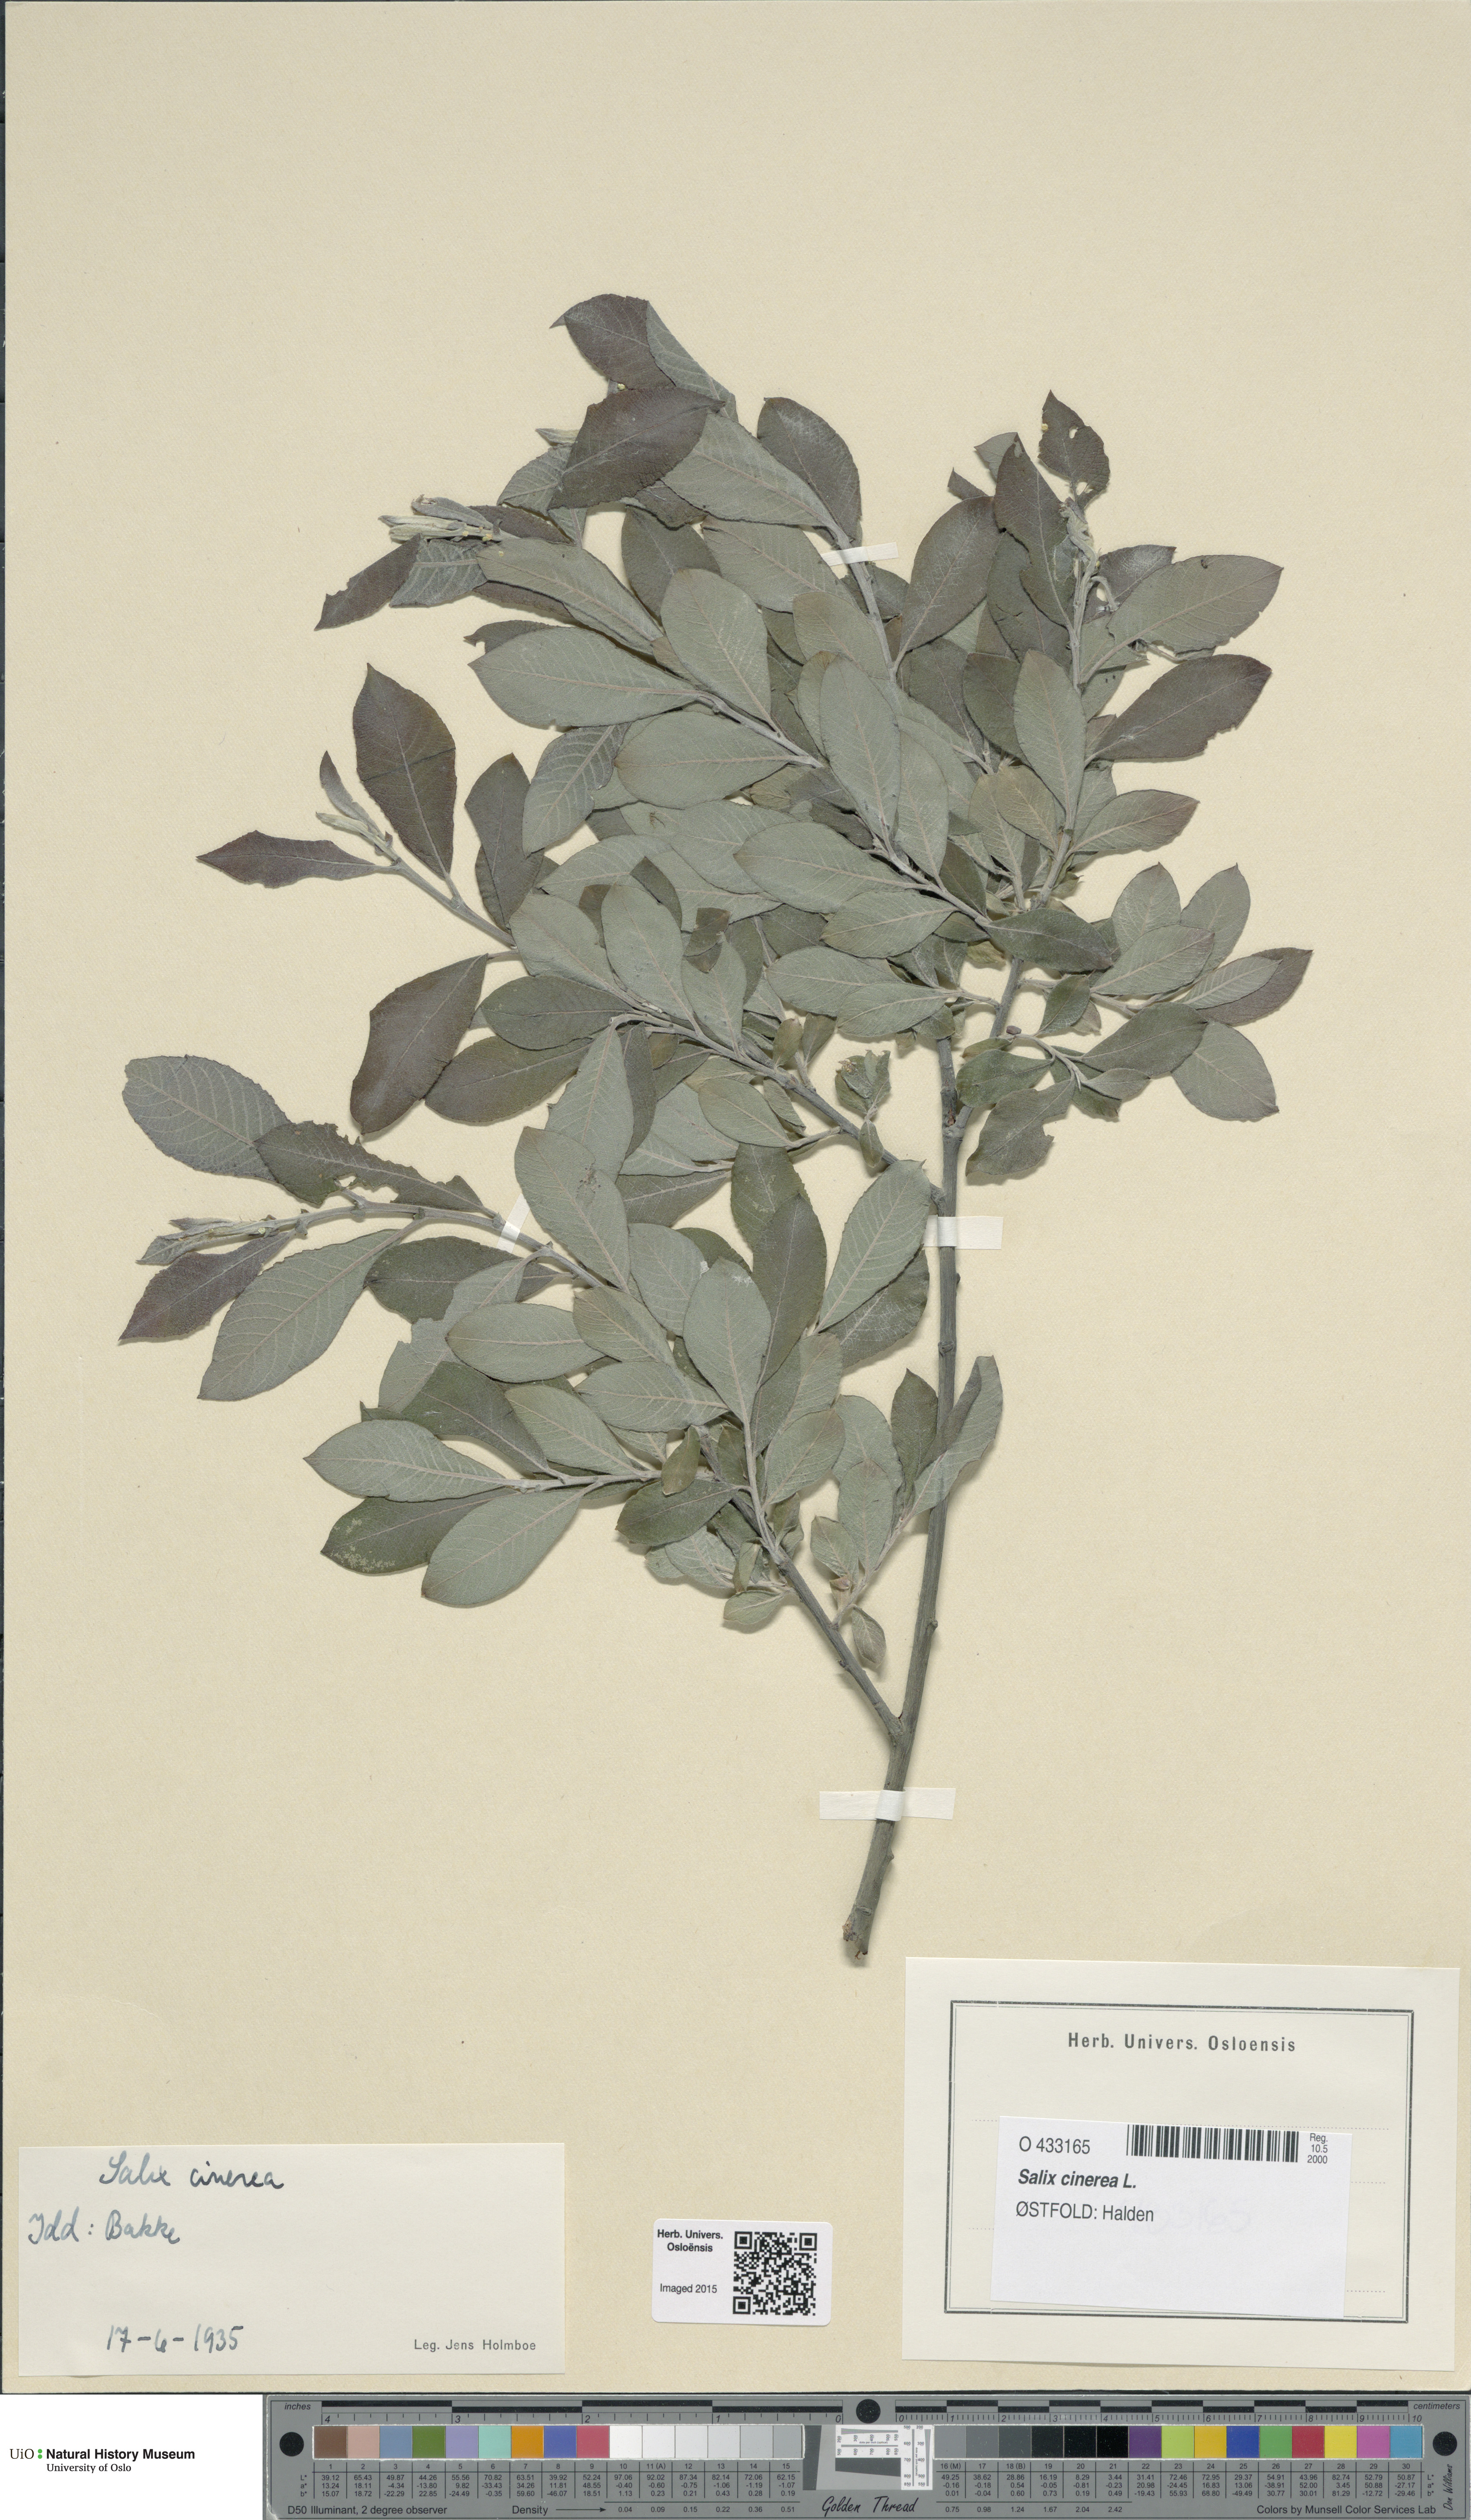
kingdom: Plantae
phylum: Tracheophyta
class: Magnoliopsida
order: Malpighiales
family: Salicaceae
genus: Salix
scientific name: Salix cinerea
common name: Common sallow
